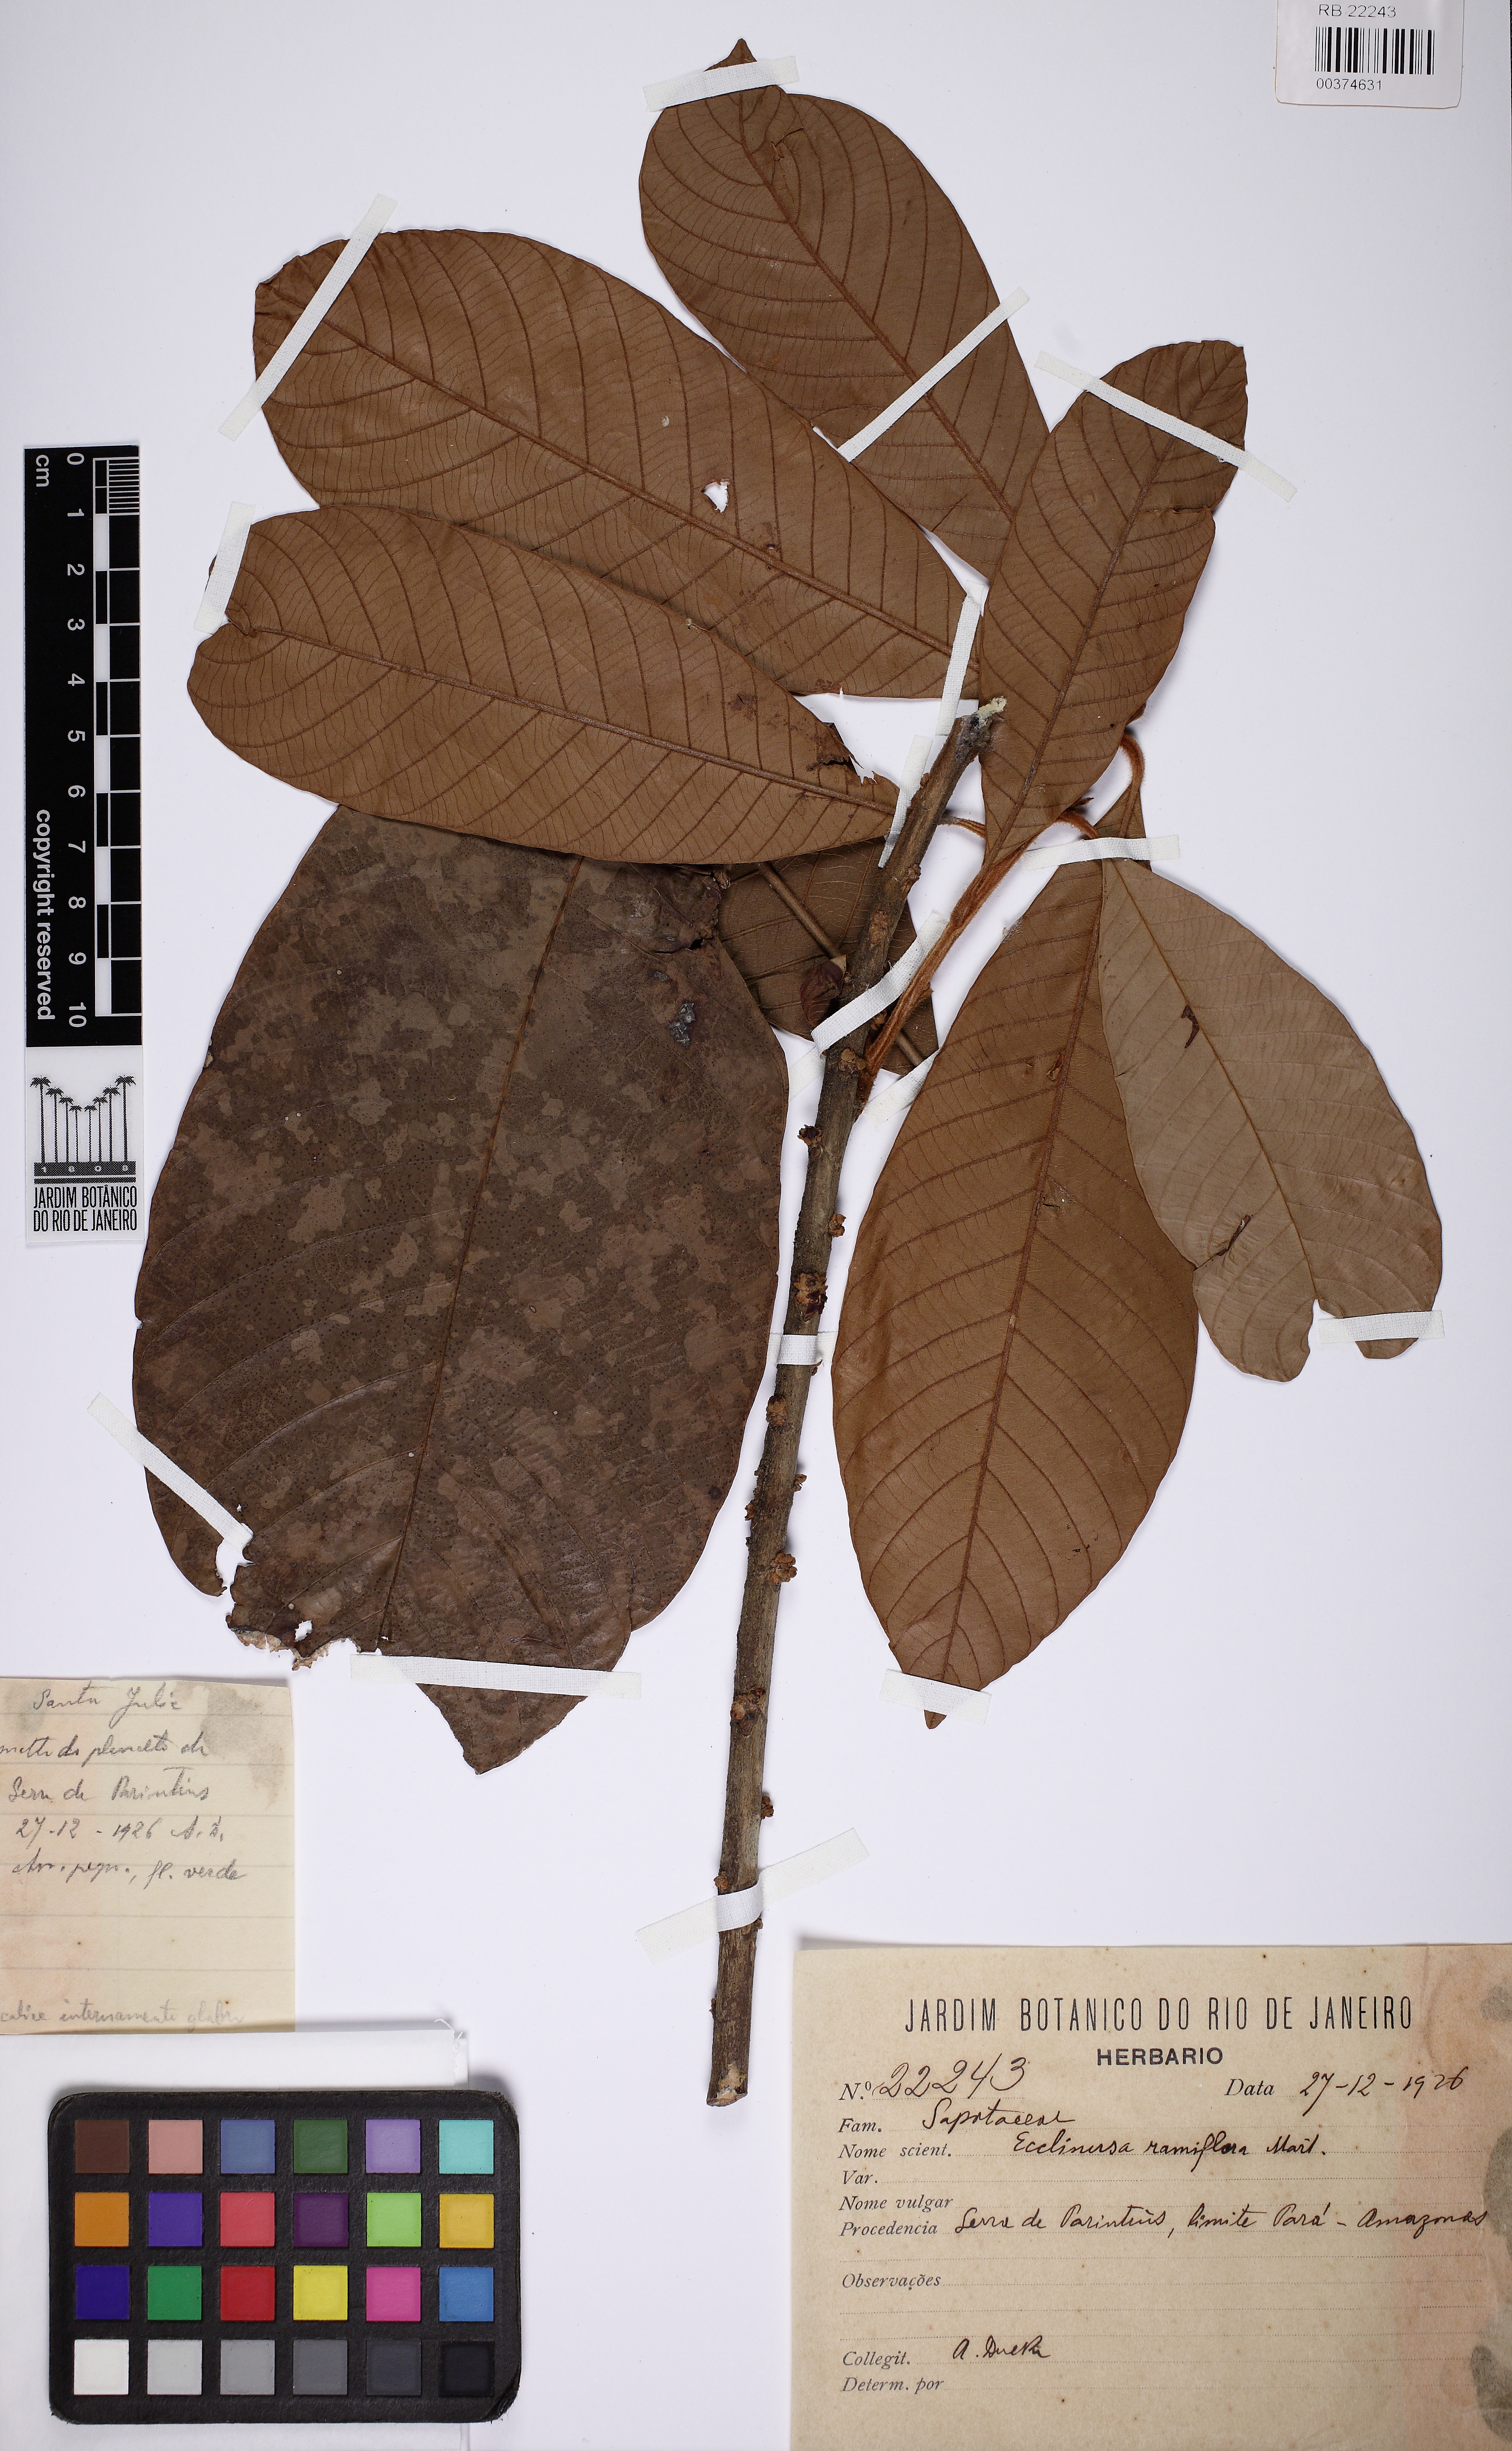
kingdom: Plantae
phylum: Tracheophyta
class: Magnoliopsida
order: Ericales
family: Sapotaceae
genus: Ecclinusa
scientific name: Ecclinusa ramiflora
